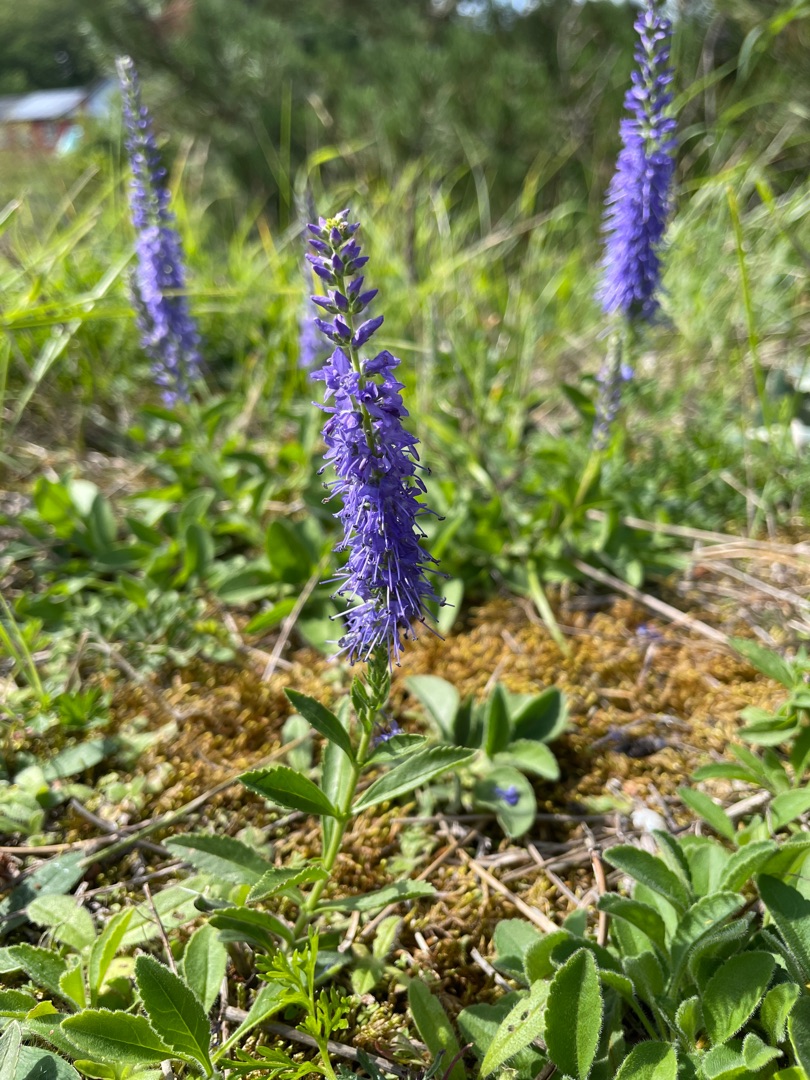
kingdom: Plantae
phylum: Tracheophyta
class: Magnoliopsida
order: Lamiales
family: Plantaginaceae
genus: Veronica
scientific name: Veronica spicata
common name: Aks-ærenpris
